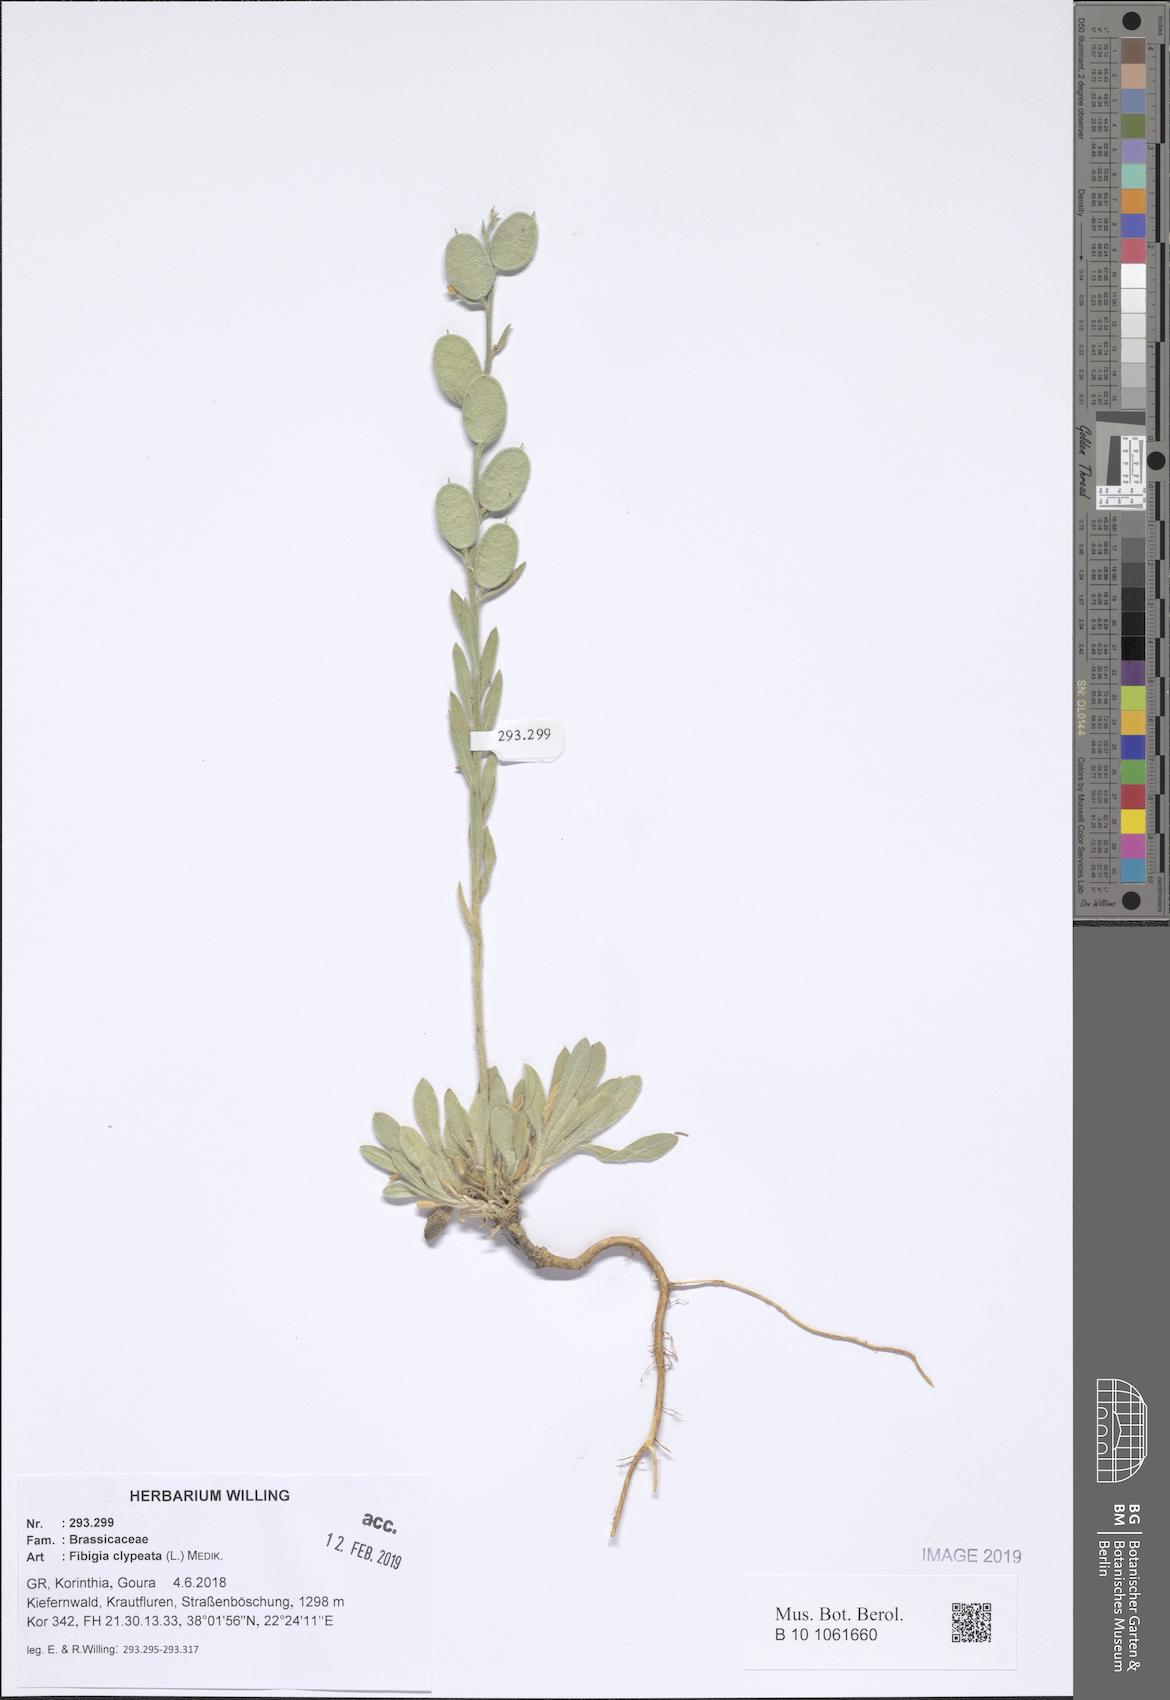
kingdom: Plantae
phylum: Tracheophyta
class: Magnoliopsida
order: Brassicales
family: Brassicaceae
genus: Fibigia
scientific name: Fibigia clypeata
